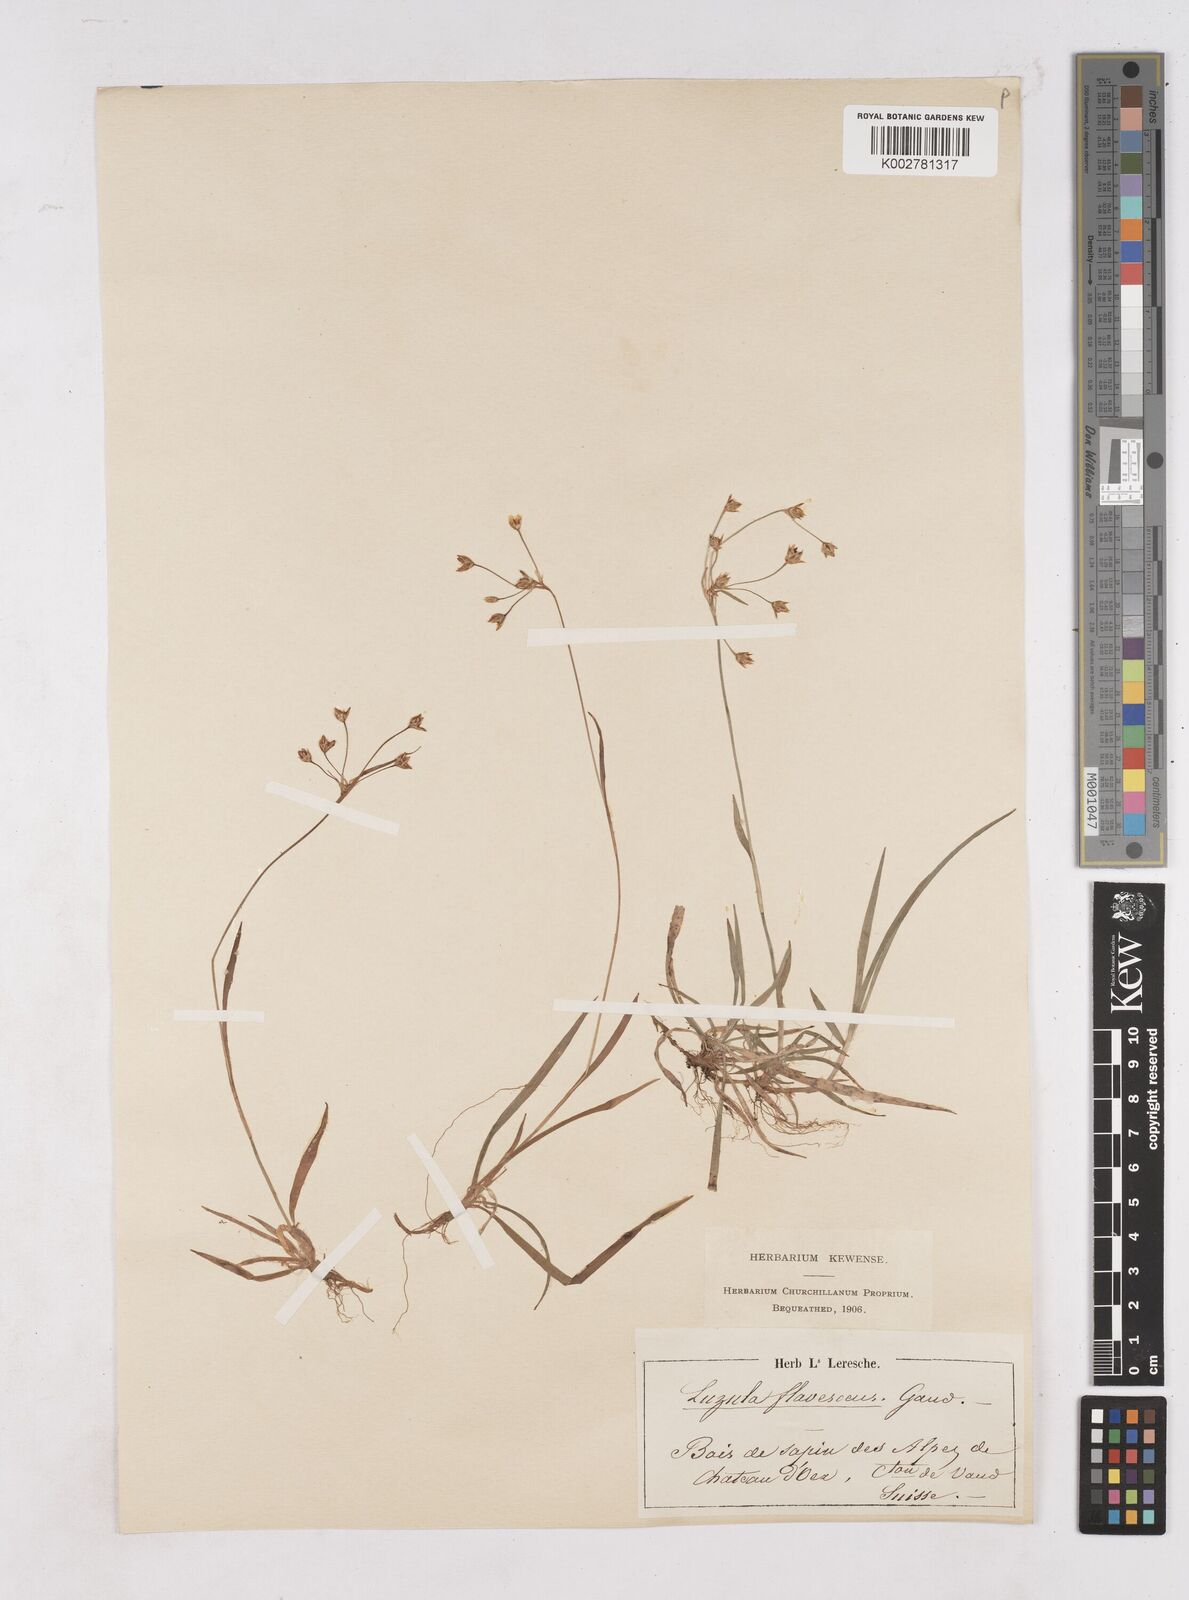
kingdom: Plantae
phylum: Tracheophyta
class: Liliopsida
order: Poales
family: Juncaceae
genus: Luzula
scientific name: Luzula luzulina
